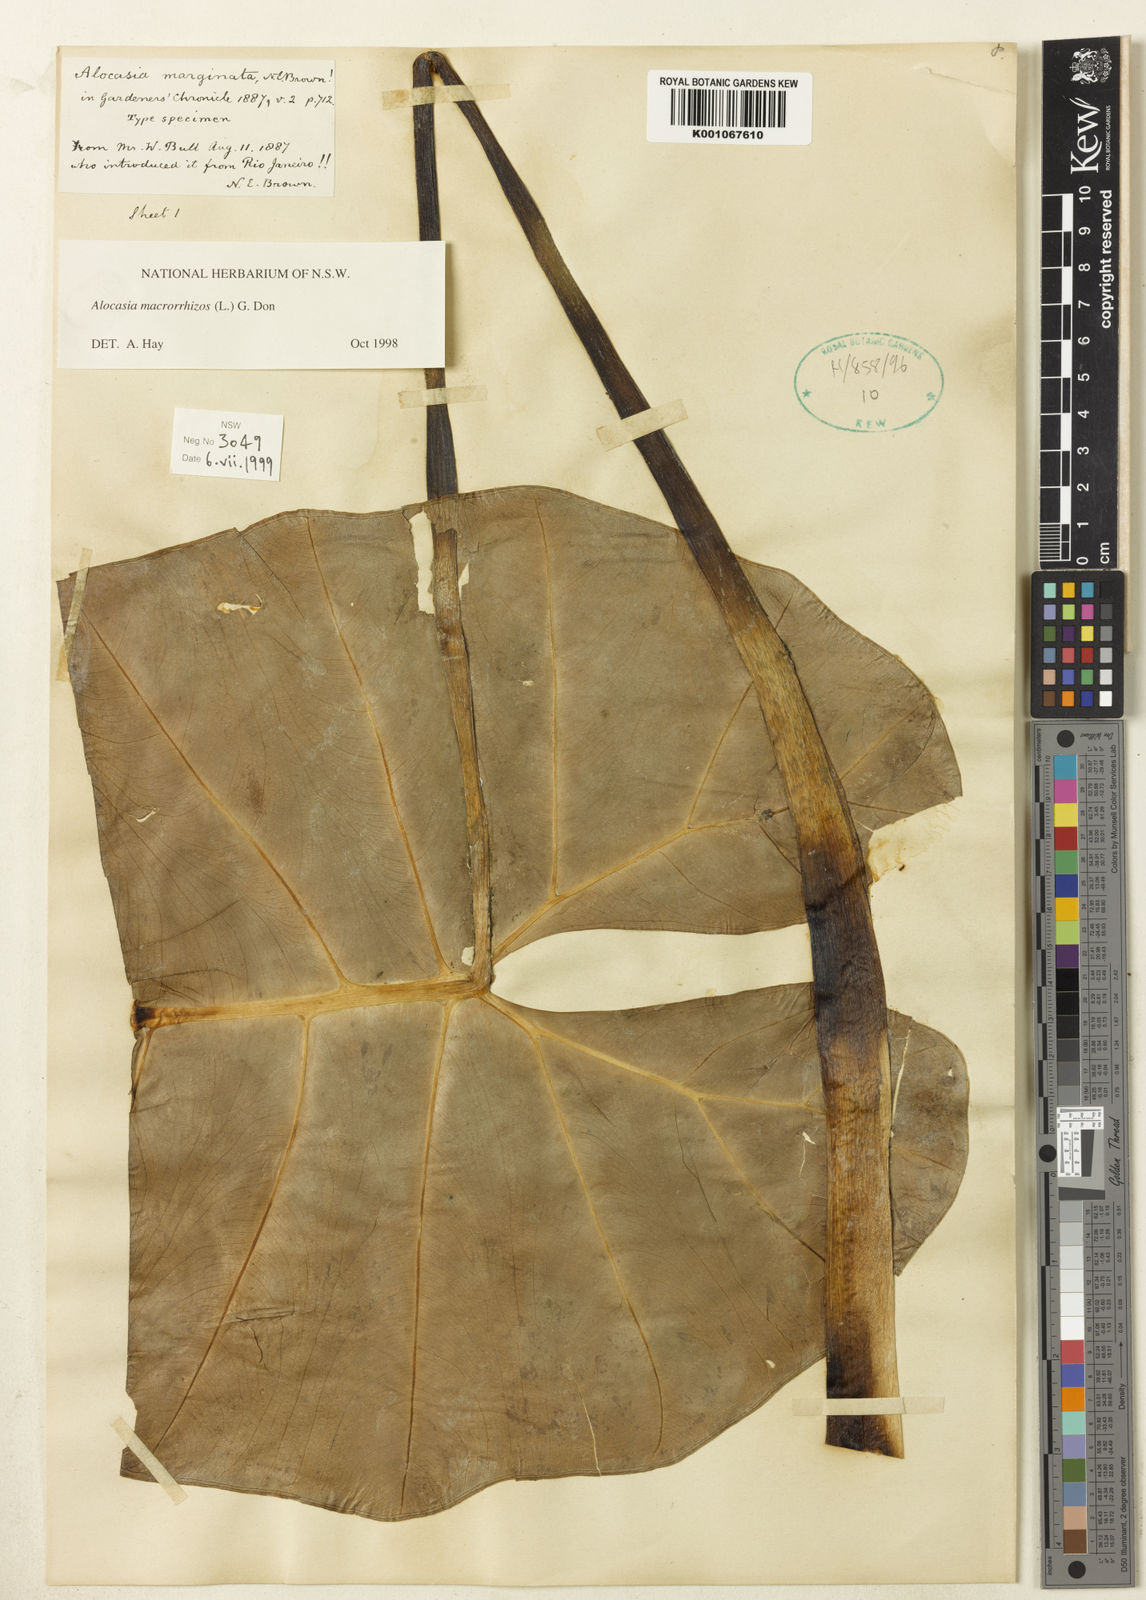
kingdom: Plantae
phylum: Tracheophyta
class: Liliopsida
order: Alismatales
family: Araceae
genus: Alocasia
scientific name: Alocasia macrorrhizos
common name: Giant taro
